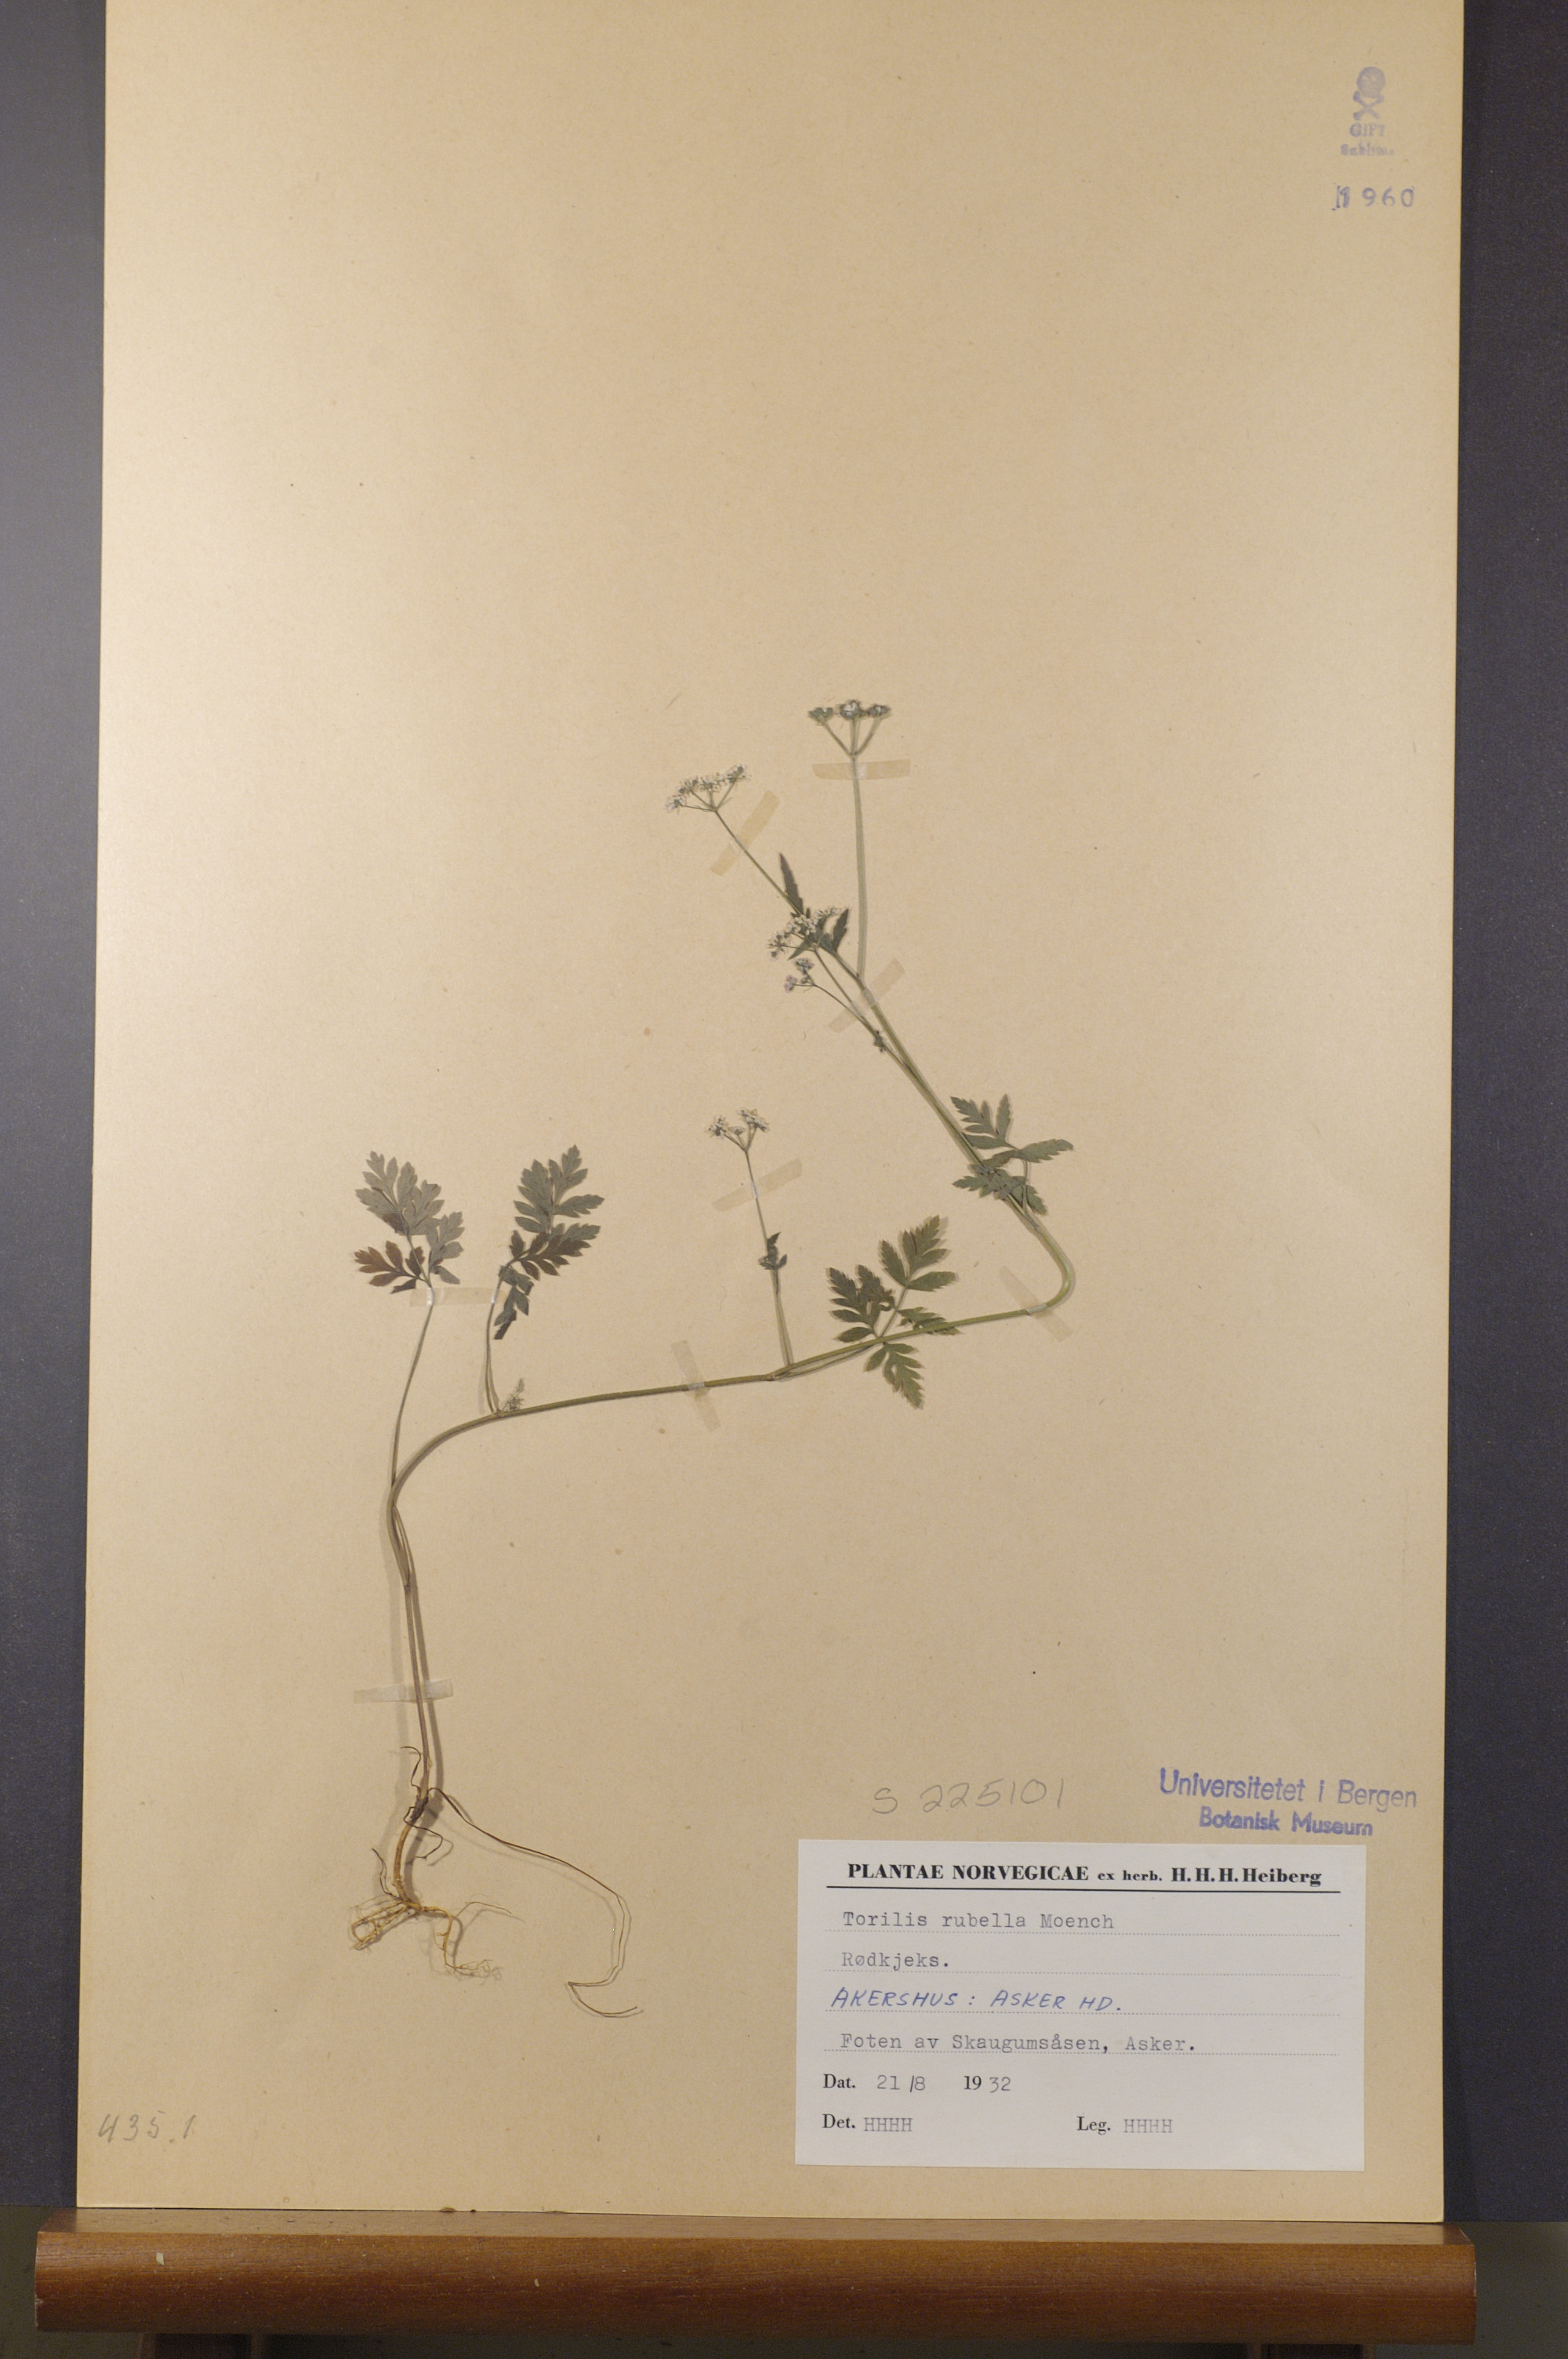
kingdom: Plantae
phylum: Tracheophyta
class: Magnoliopsida
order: Apiales
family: Apiaceae
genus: Torilis
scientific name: Torilis japonica
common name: Upright hedge-parsley
